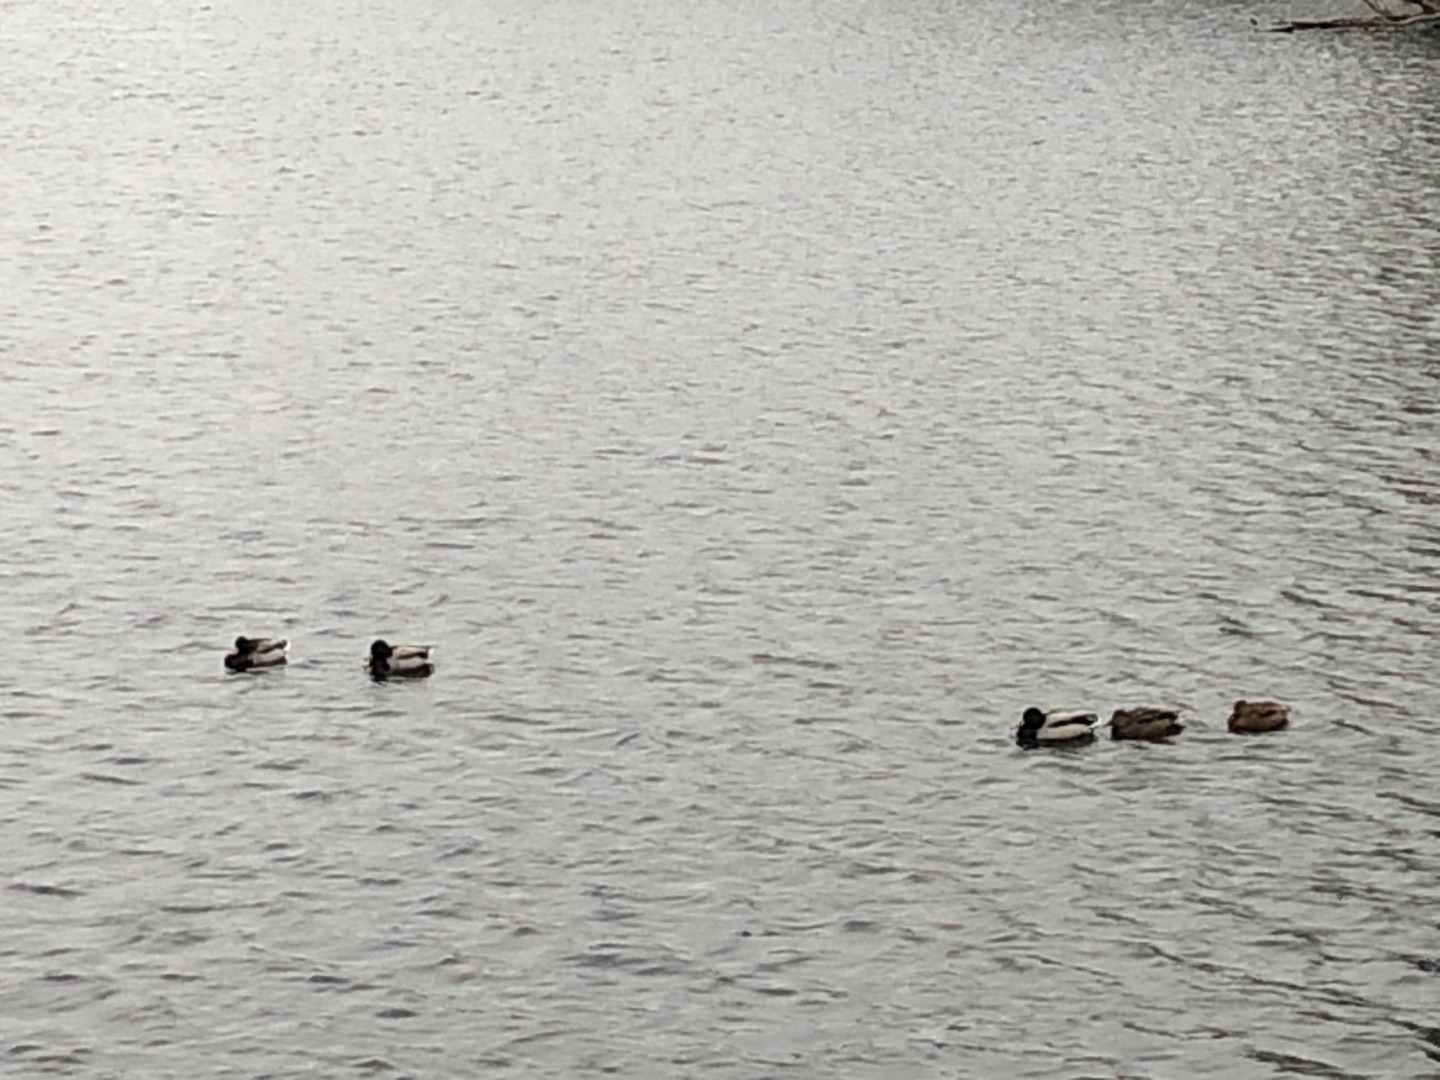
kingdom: Animalia
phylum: Chordata
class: Aves
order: Anseriformes
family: Anatidae
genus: Anas
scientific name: Anas platyrhynchos
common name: Gråand
